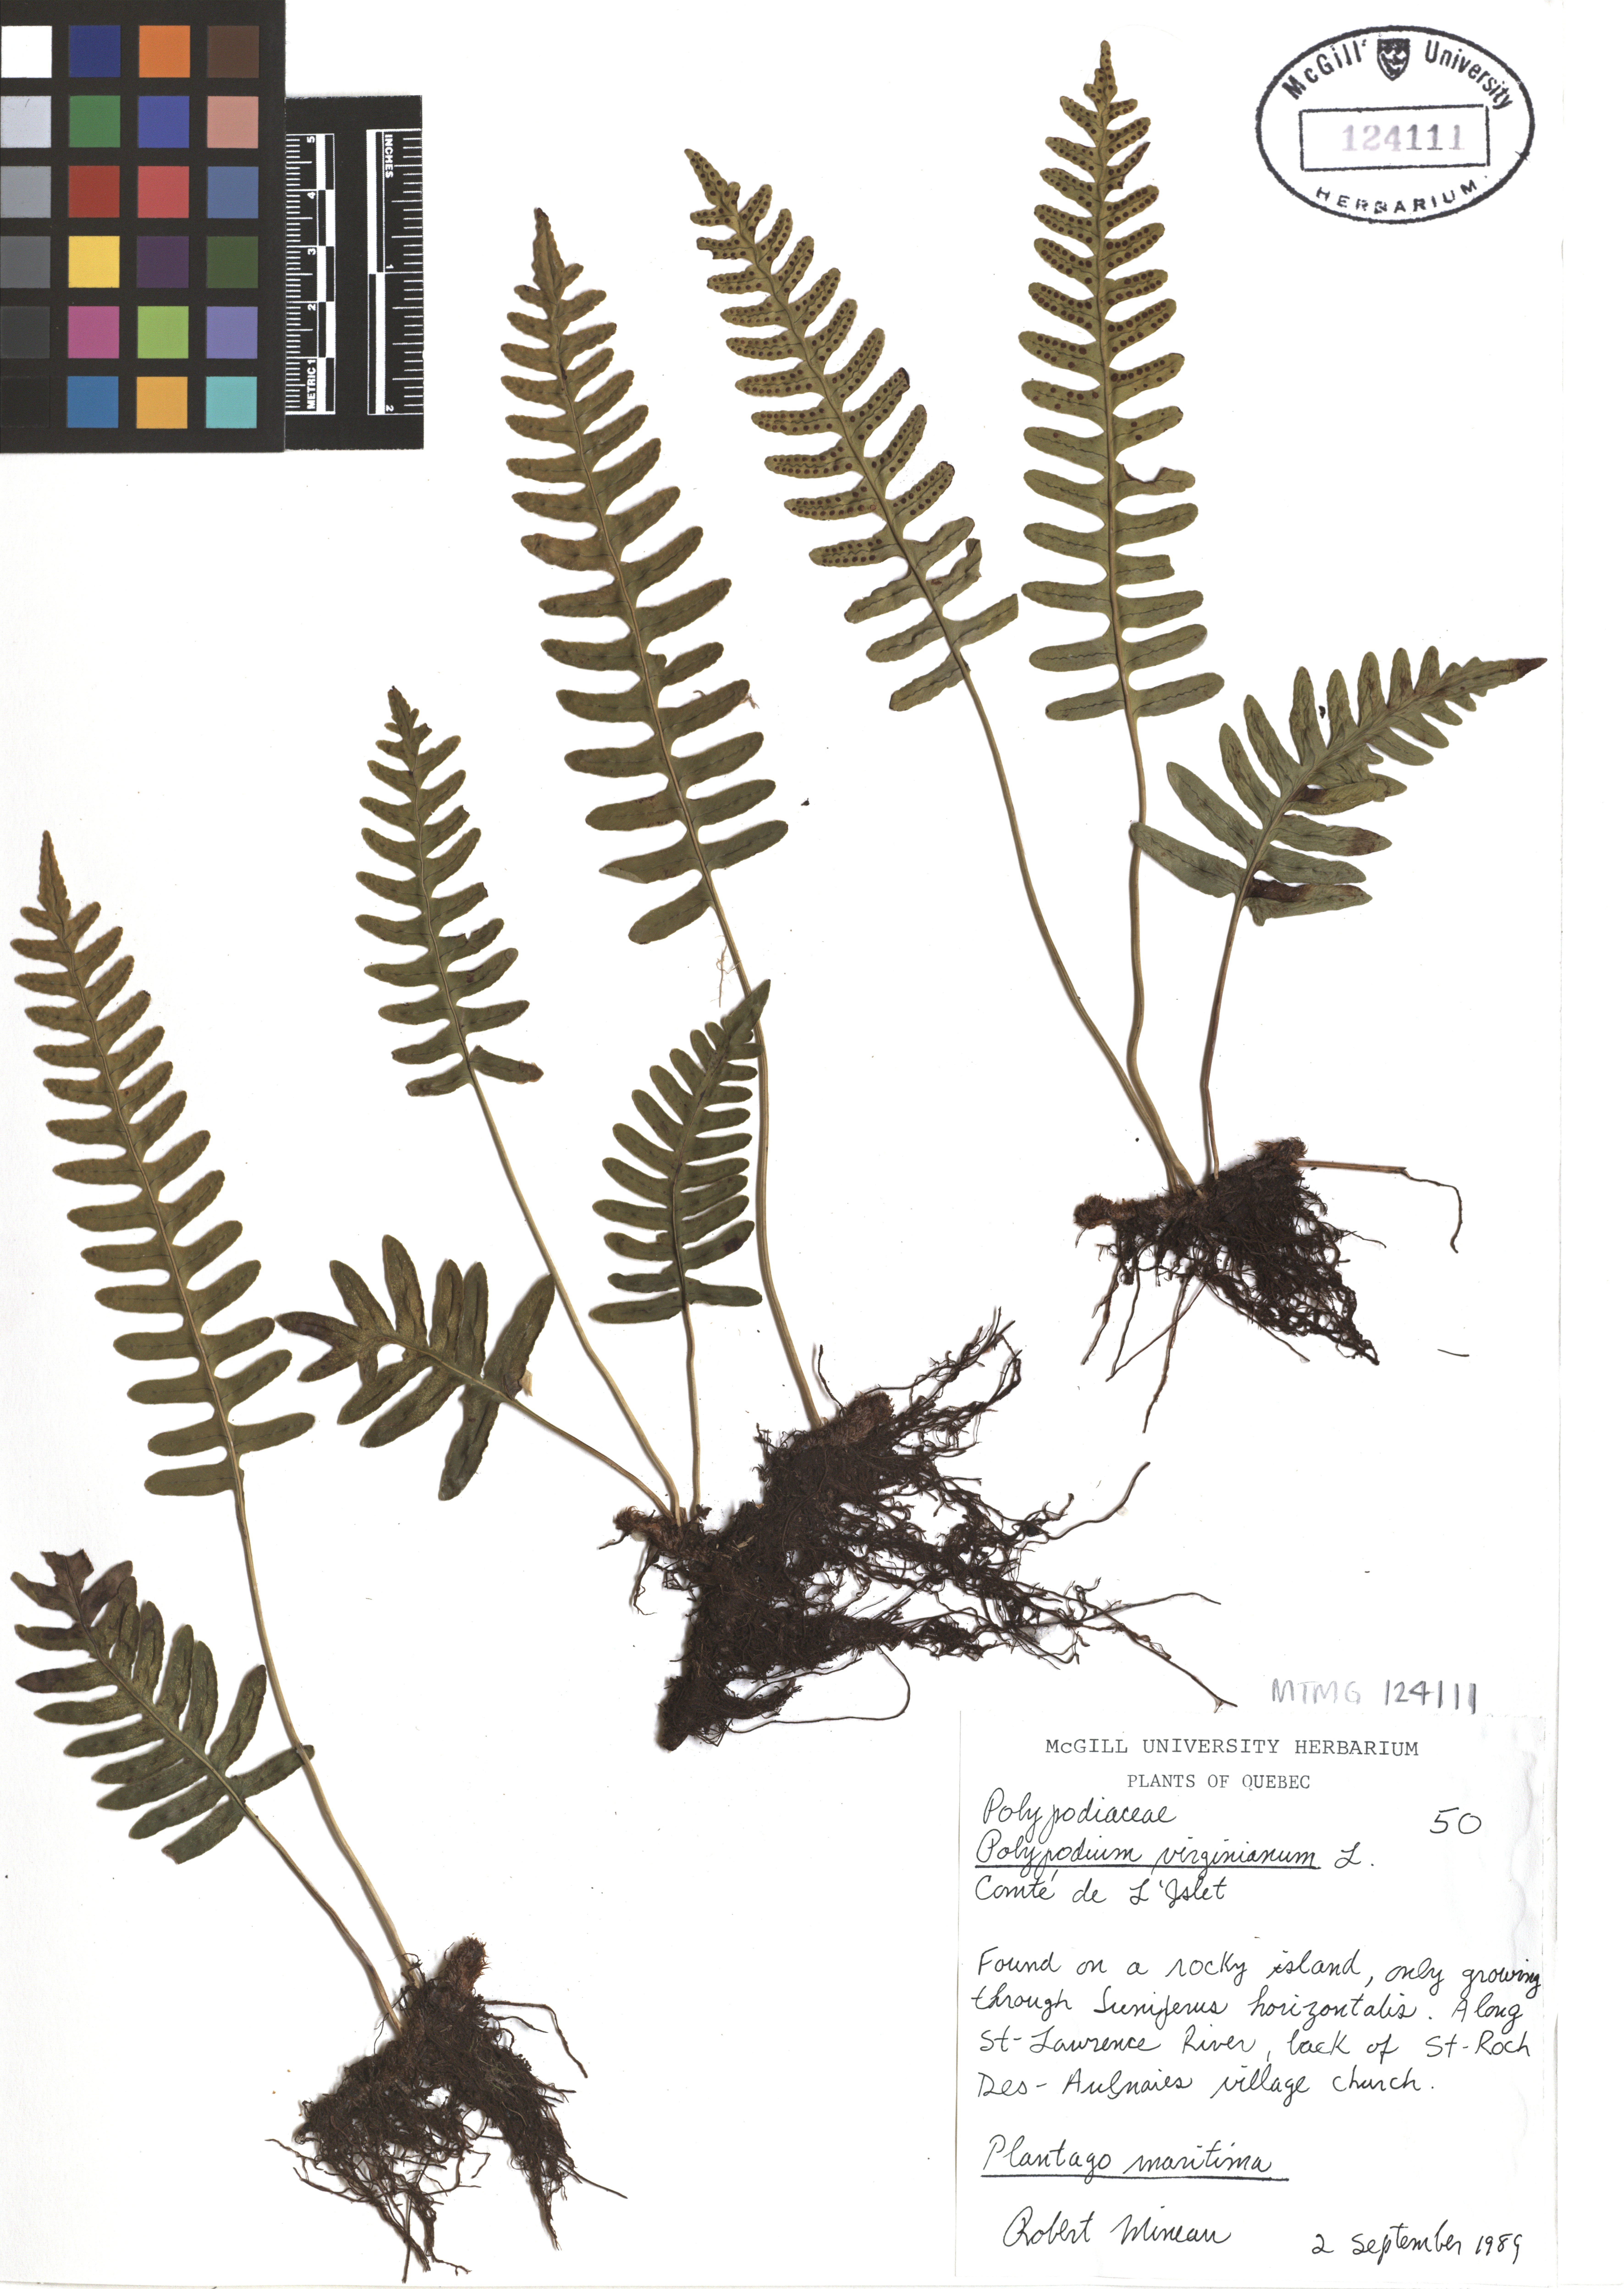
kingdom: Plantae
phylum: Tracheophyta
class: Polypodiopsida
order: Polypodiales
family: Polypodiaceae
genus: Polypodium
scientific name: Polypodium virginianum
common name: American wall fern
